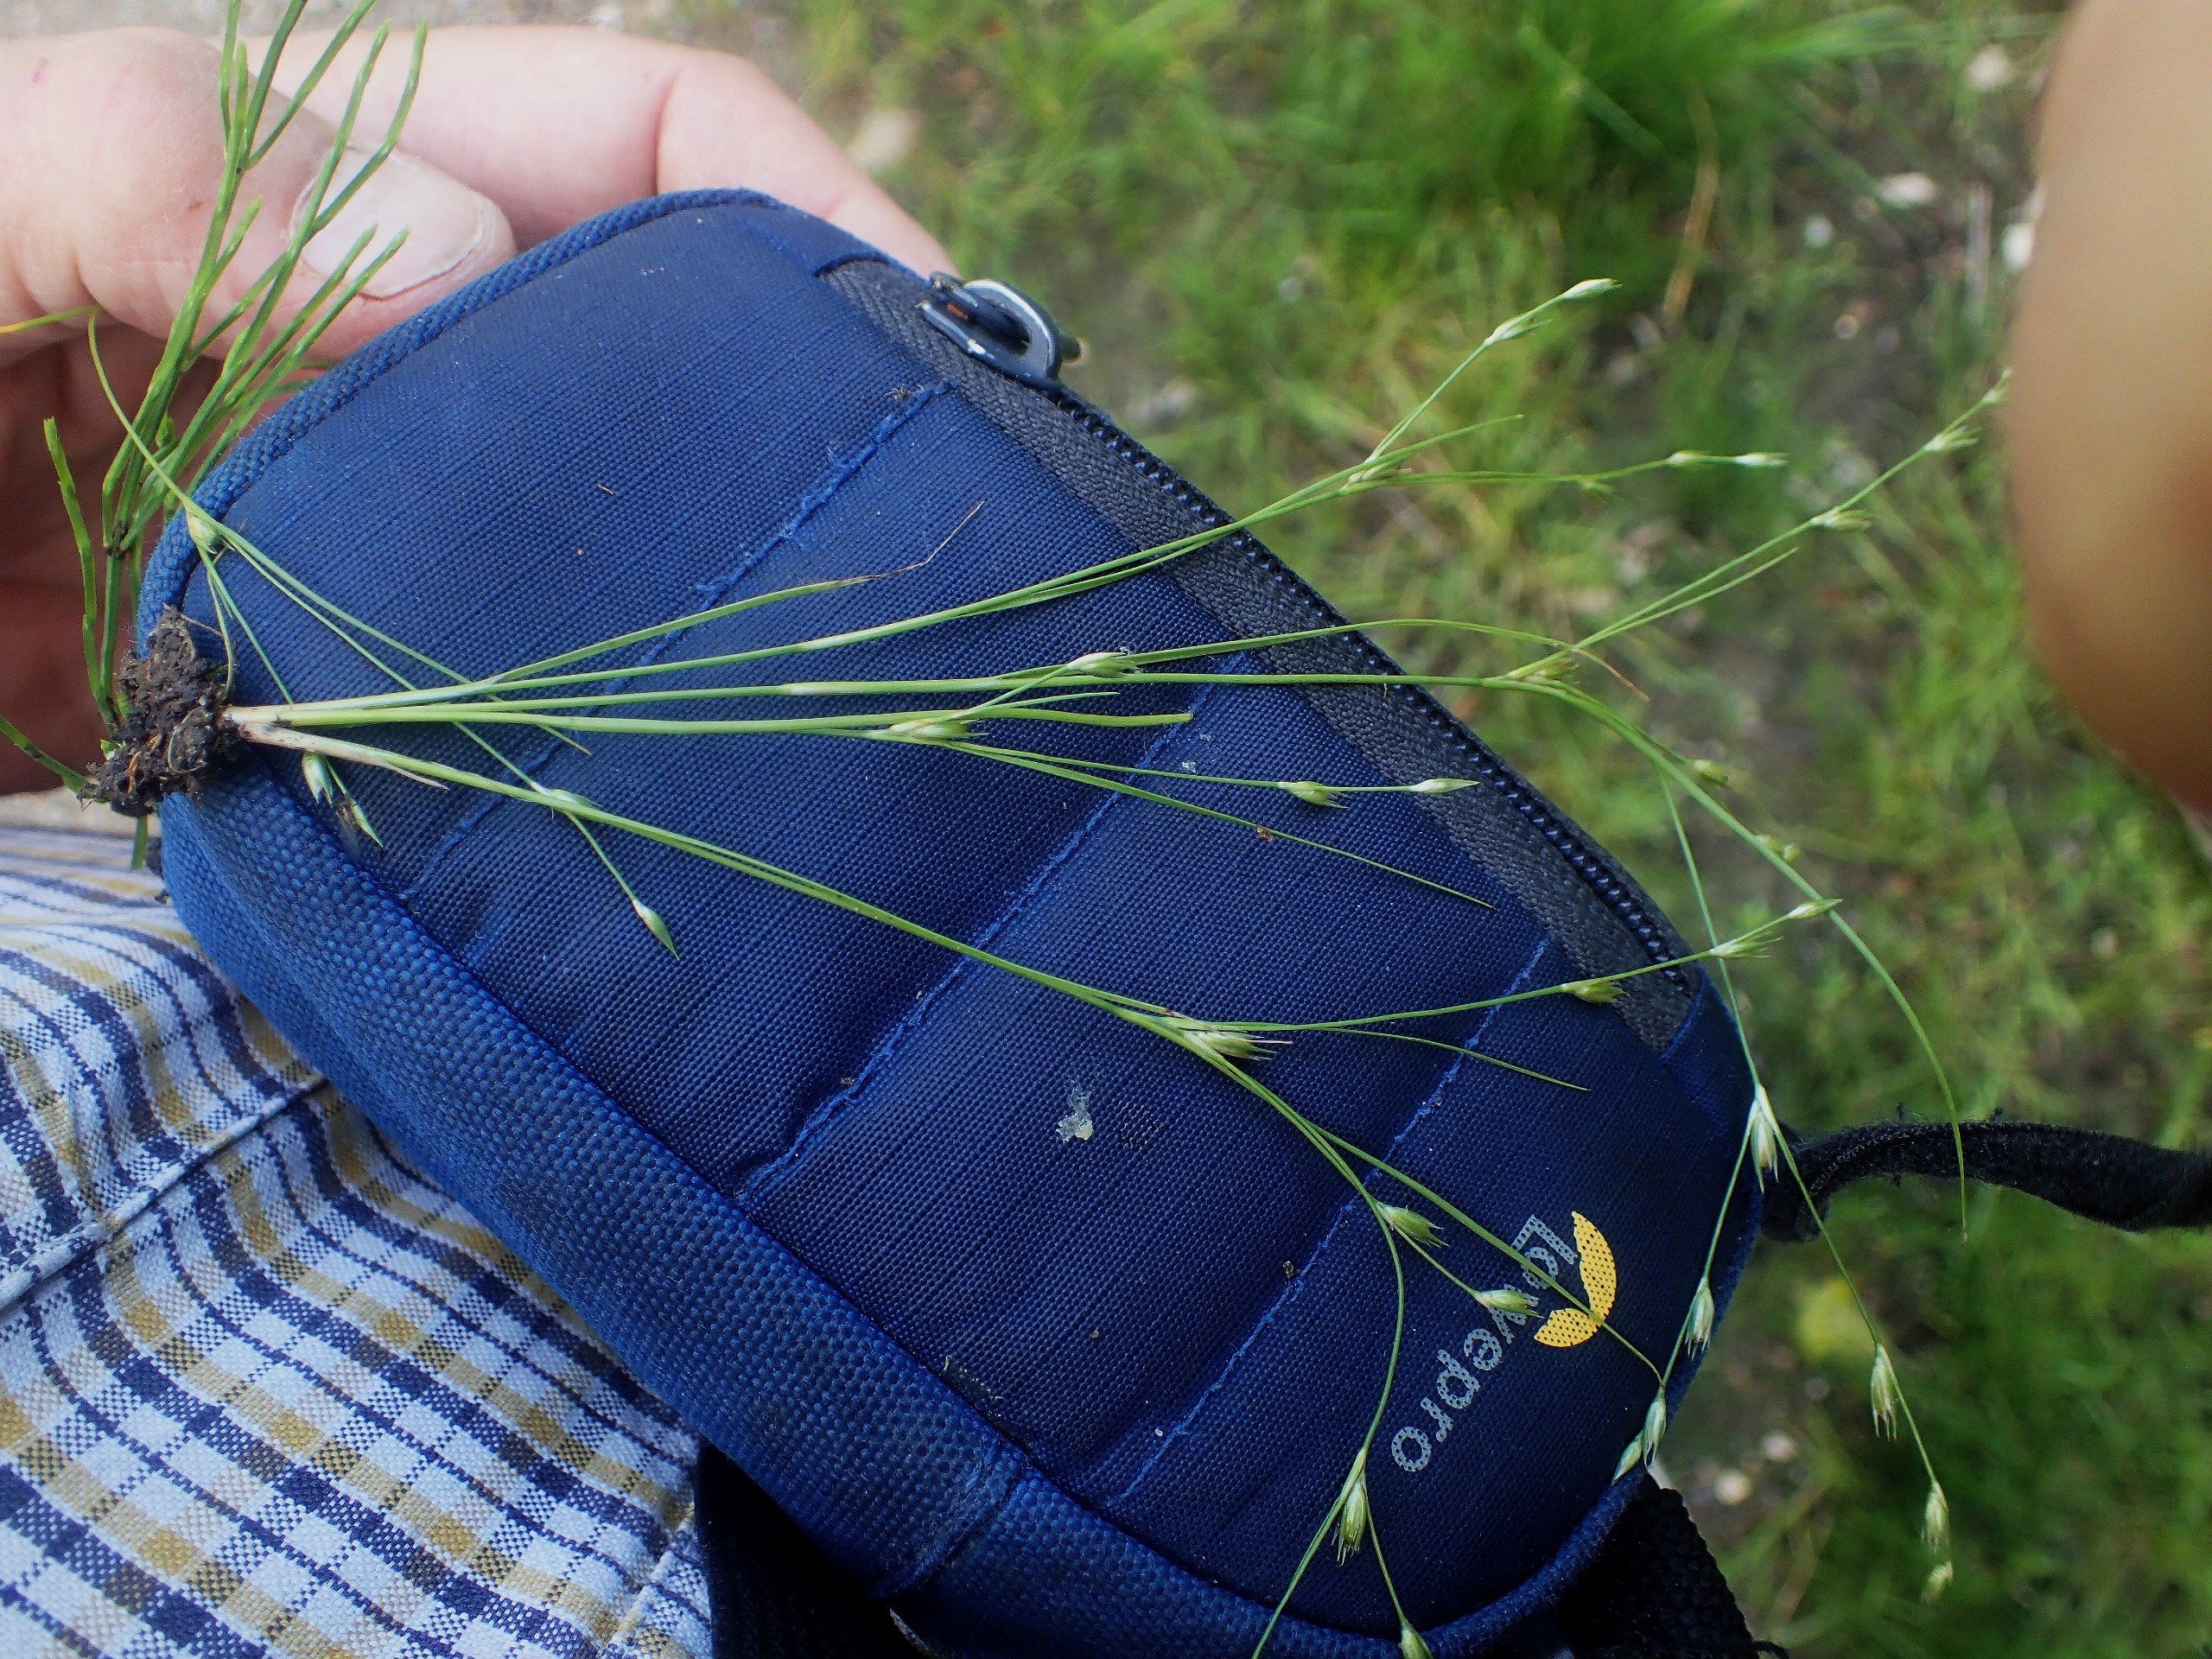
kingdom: Plantae
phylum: Tracheophyta
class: Liliopsida
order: Poales
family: Juncaceae
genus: Juncus
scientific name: Juncus bufonius
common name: Tudse-siv
